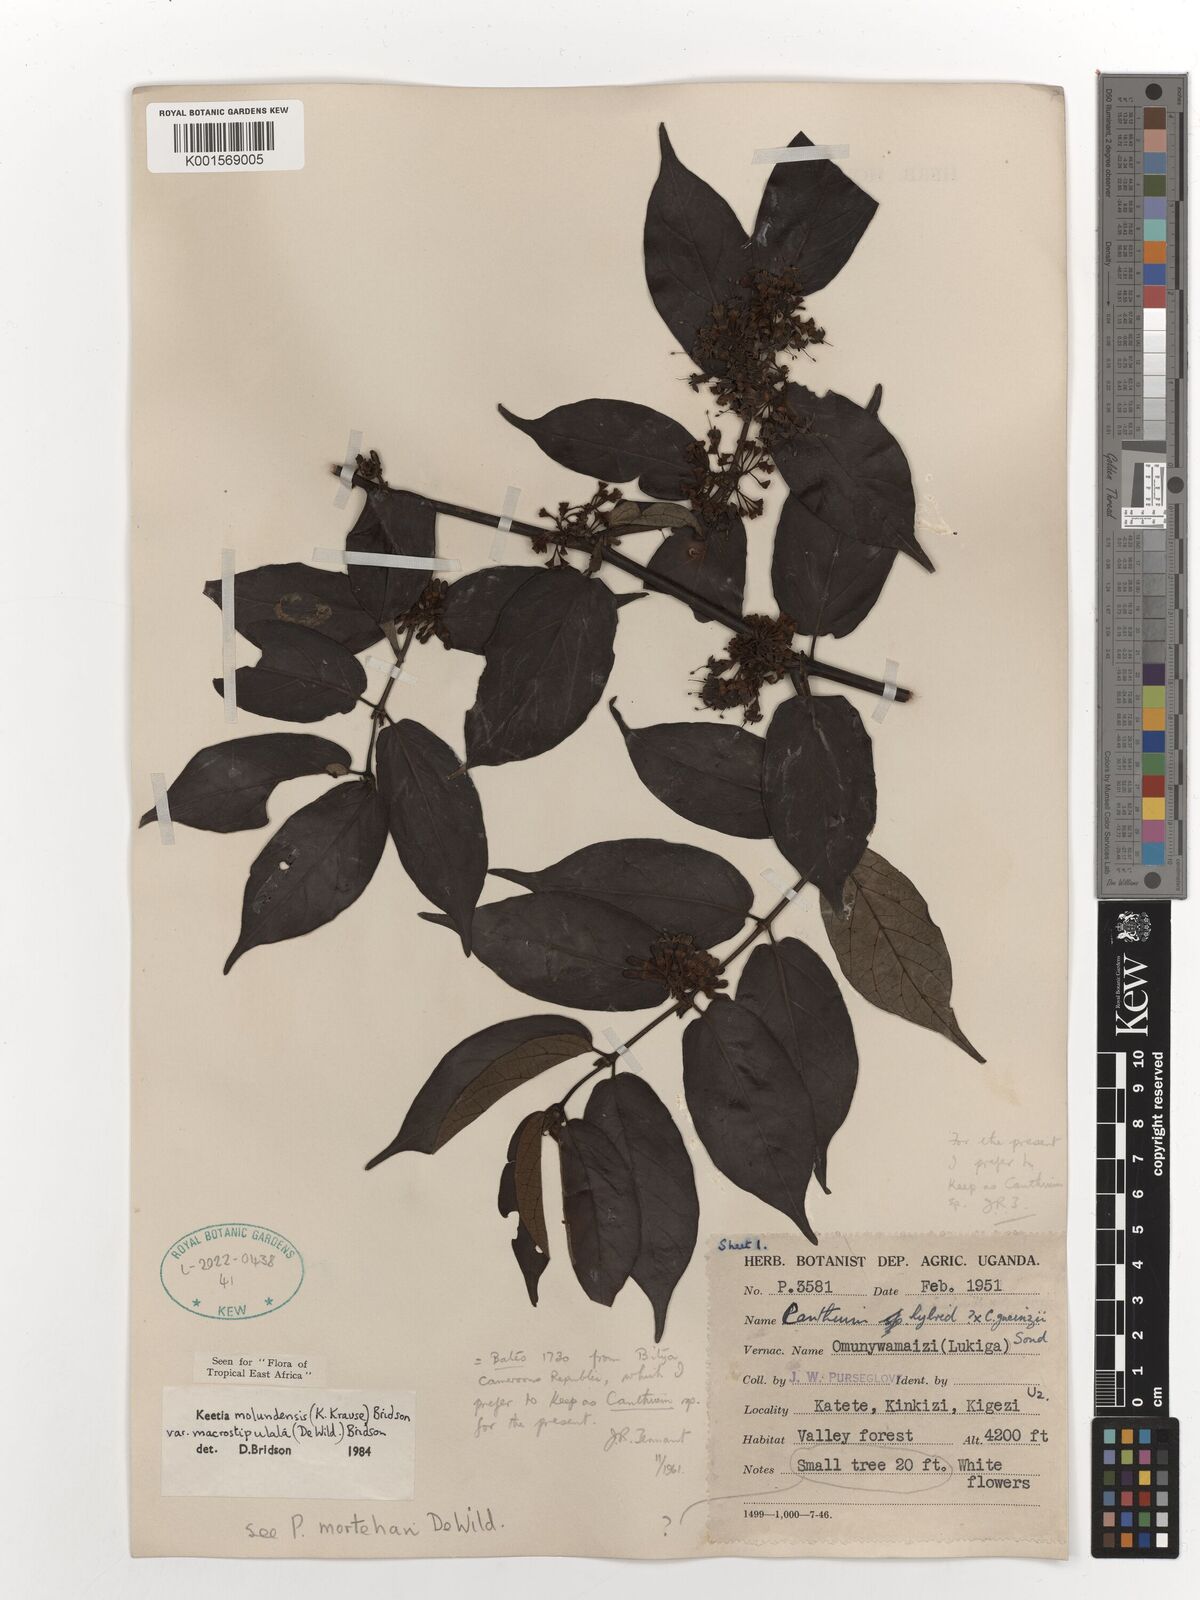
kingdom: Plantae
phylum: Tracheophyta
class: Magnoliopsida
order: Gentianales
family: Rubiaceae
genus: Keetia
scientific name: Keetia molundensis
